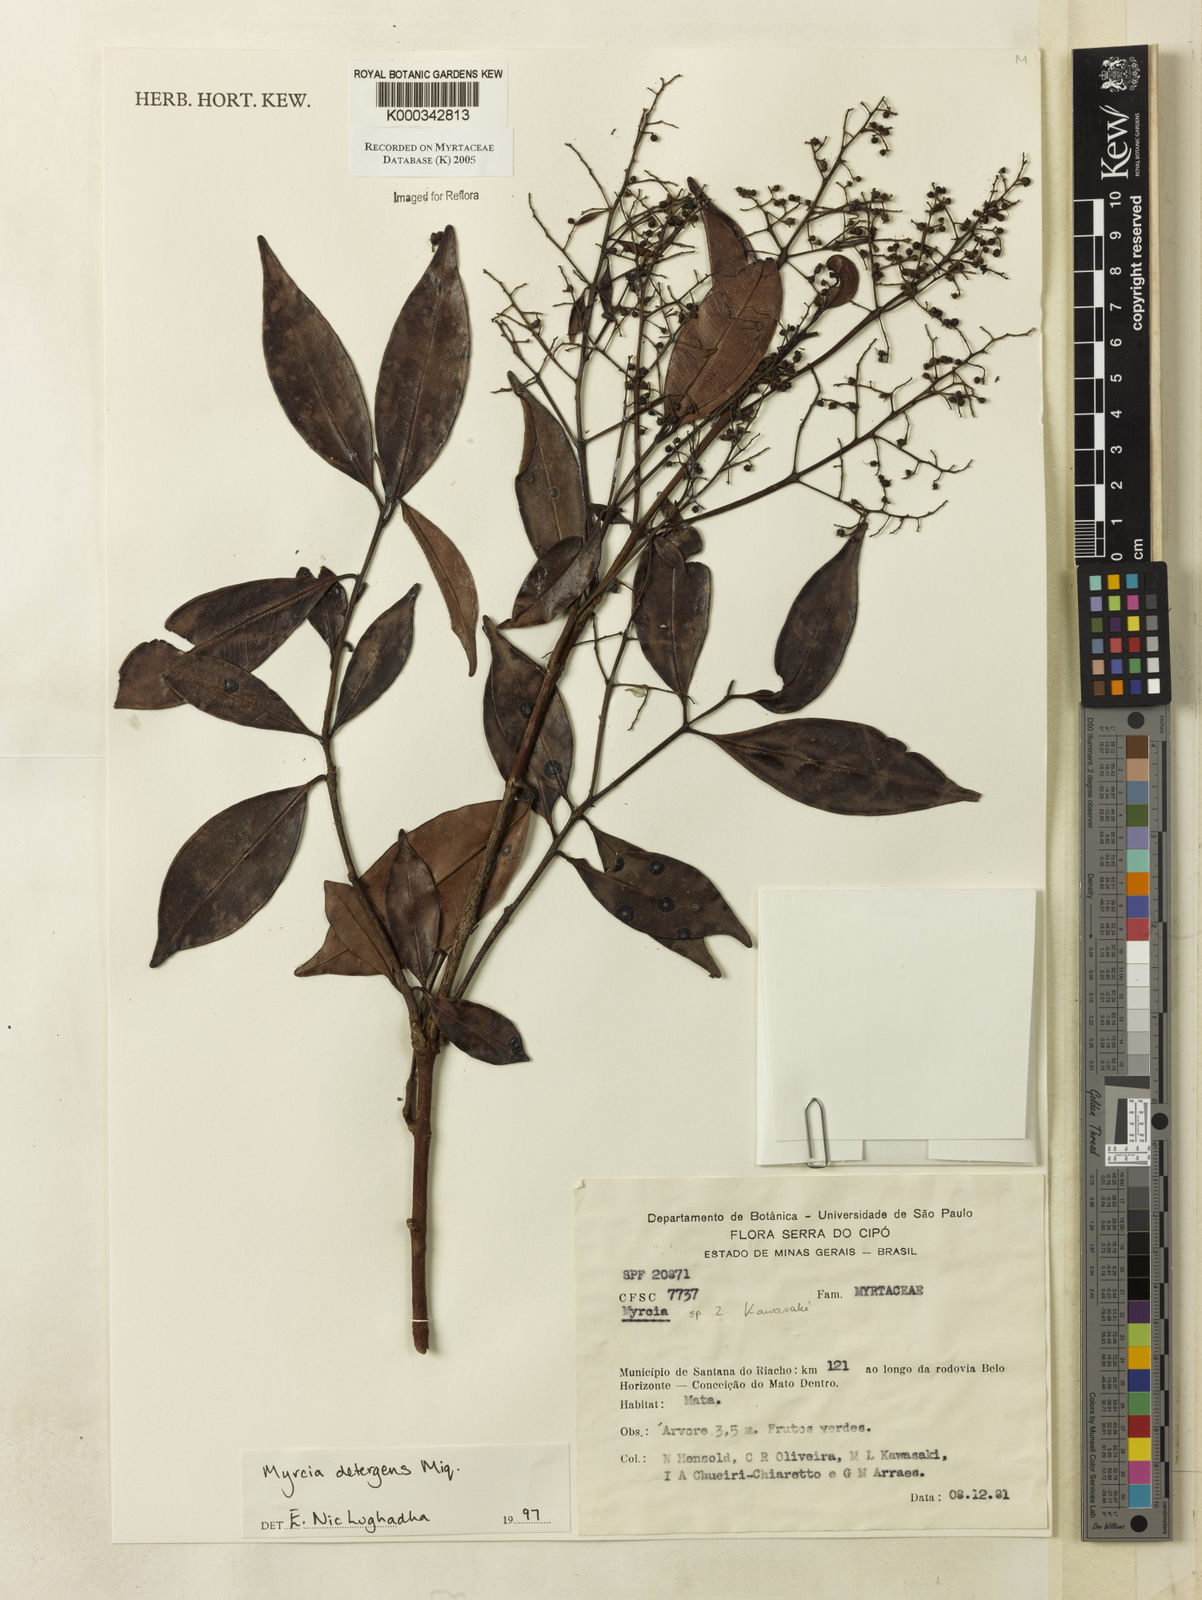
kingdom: Plantae
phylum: Tracheophyta
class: Magnoliopsida
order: Myrtales
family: Myrtaceae
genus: Myrcia
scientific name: Myrcia amazonica
